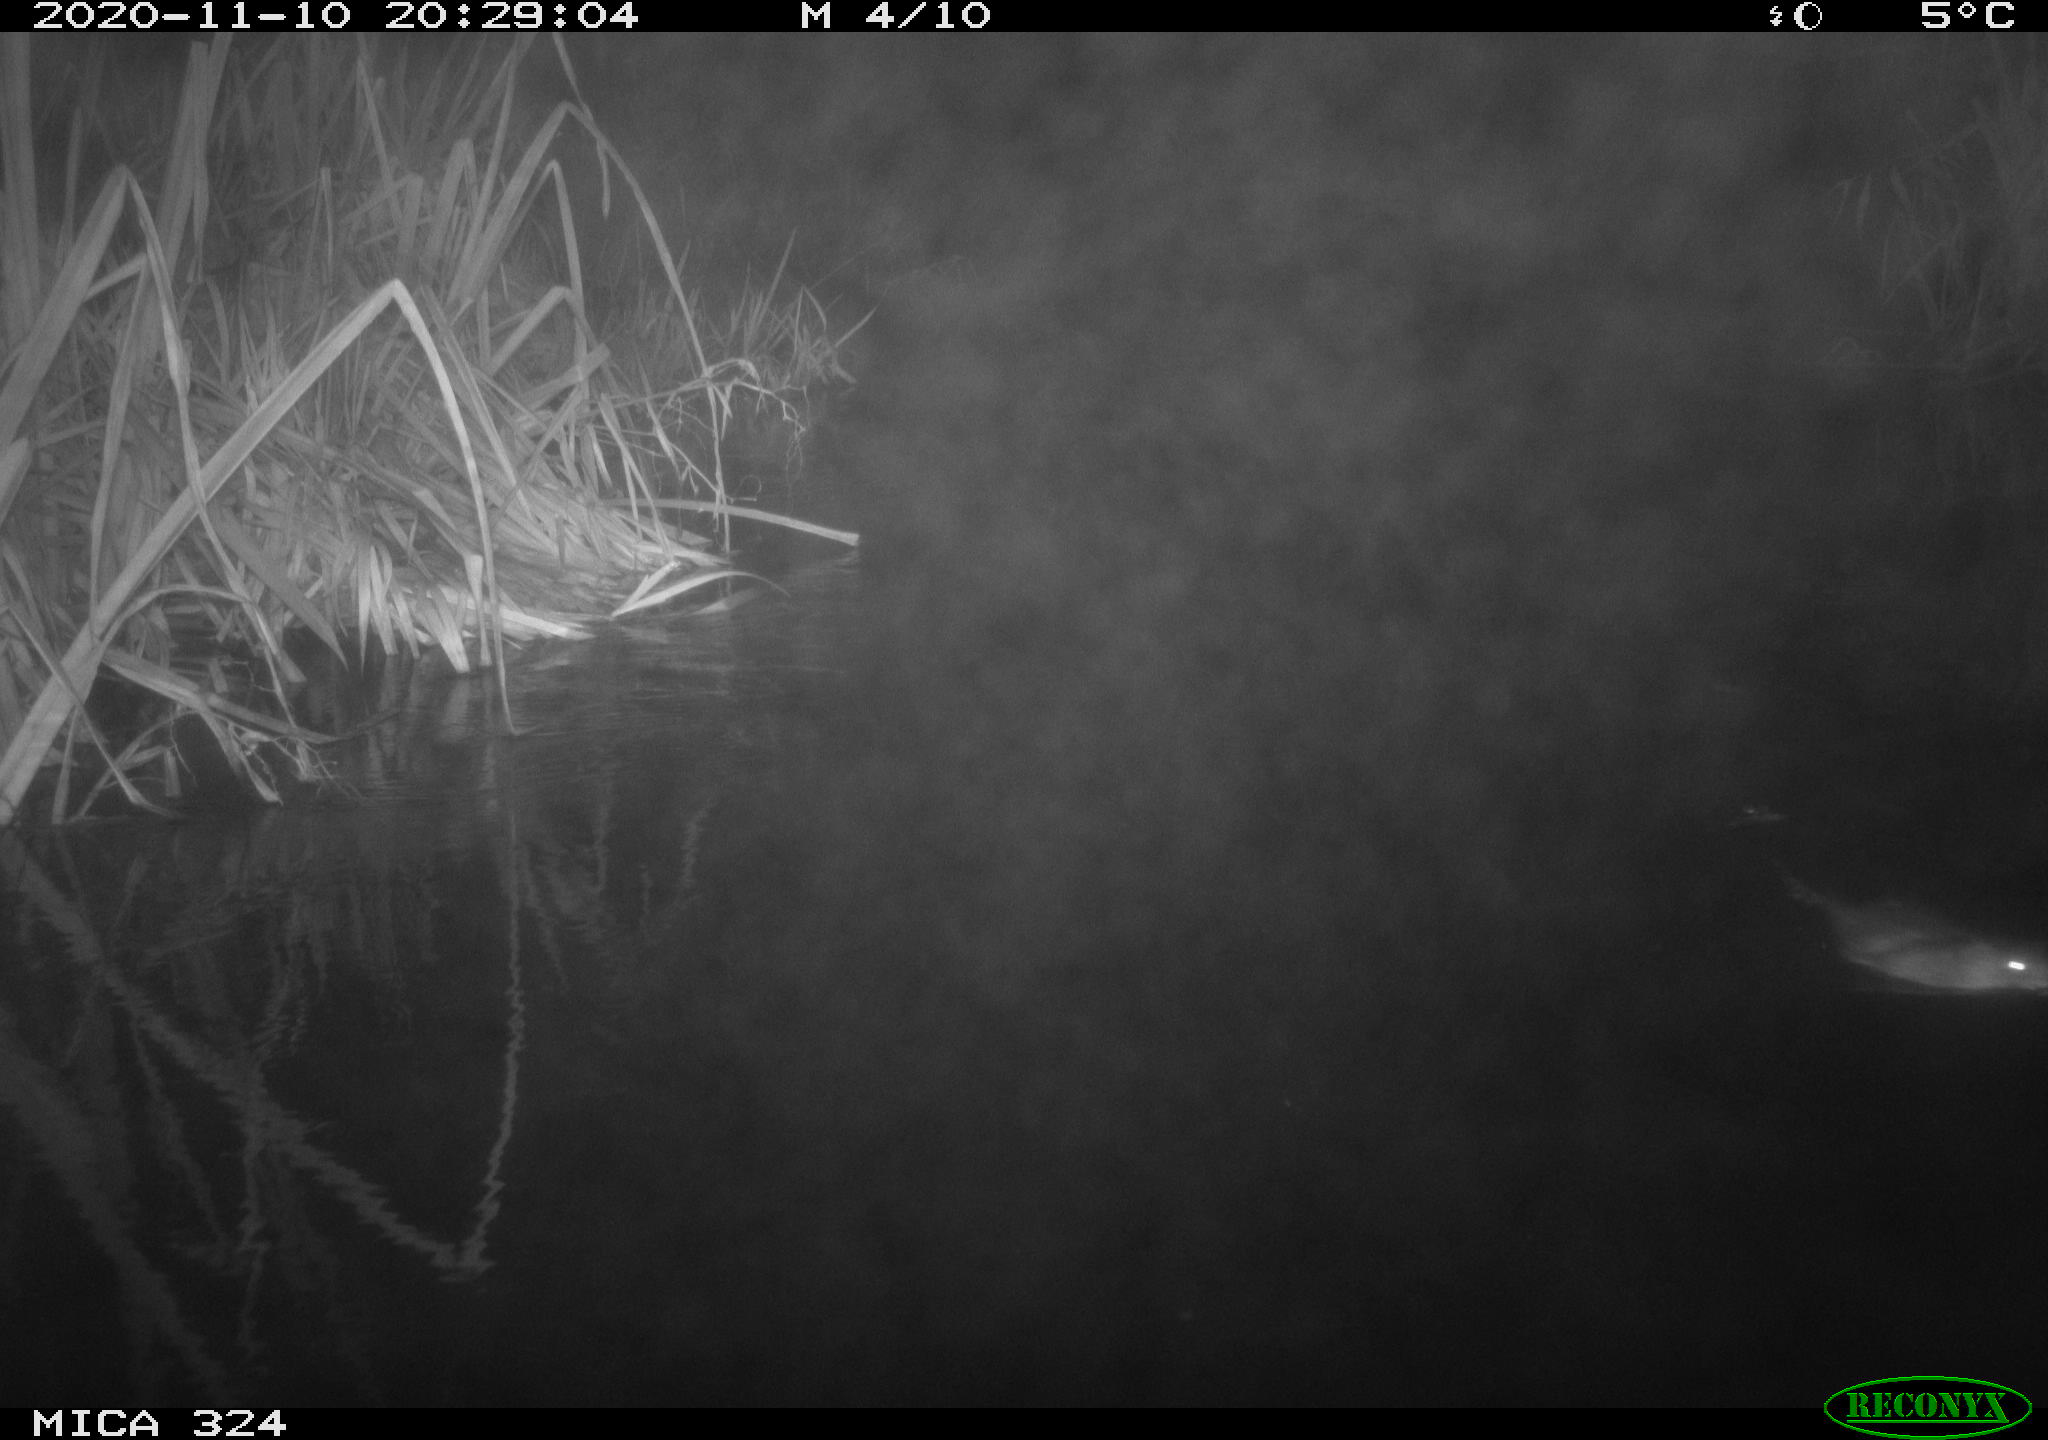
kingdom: Animalia
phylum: Chordata
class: Mammalia
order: Rodentia
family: Cricetidae
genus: Ondatra
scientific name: Ondatra zibethicus
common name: Muskrat
